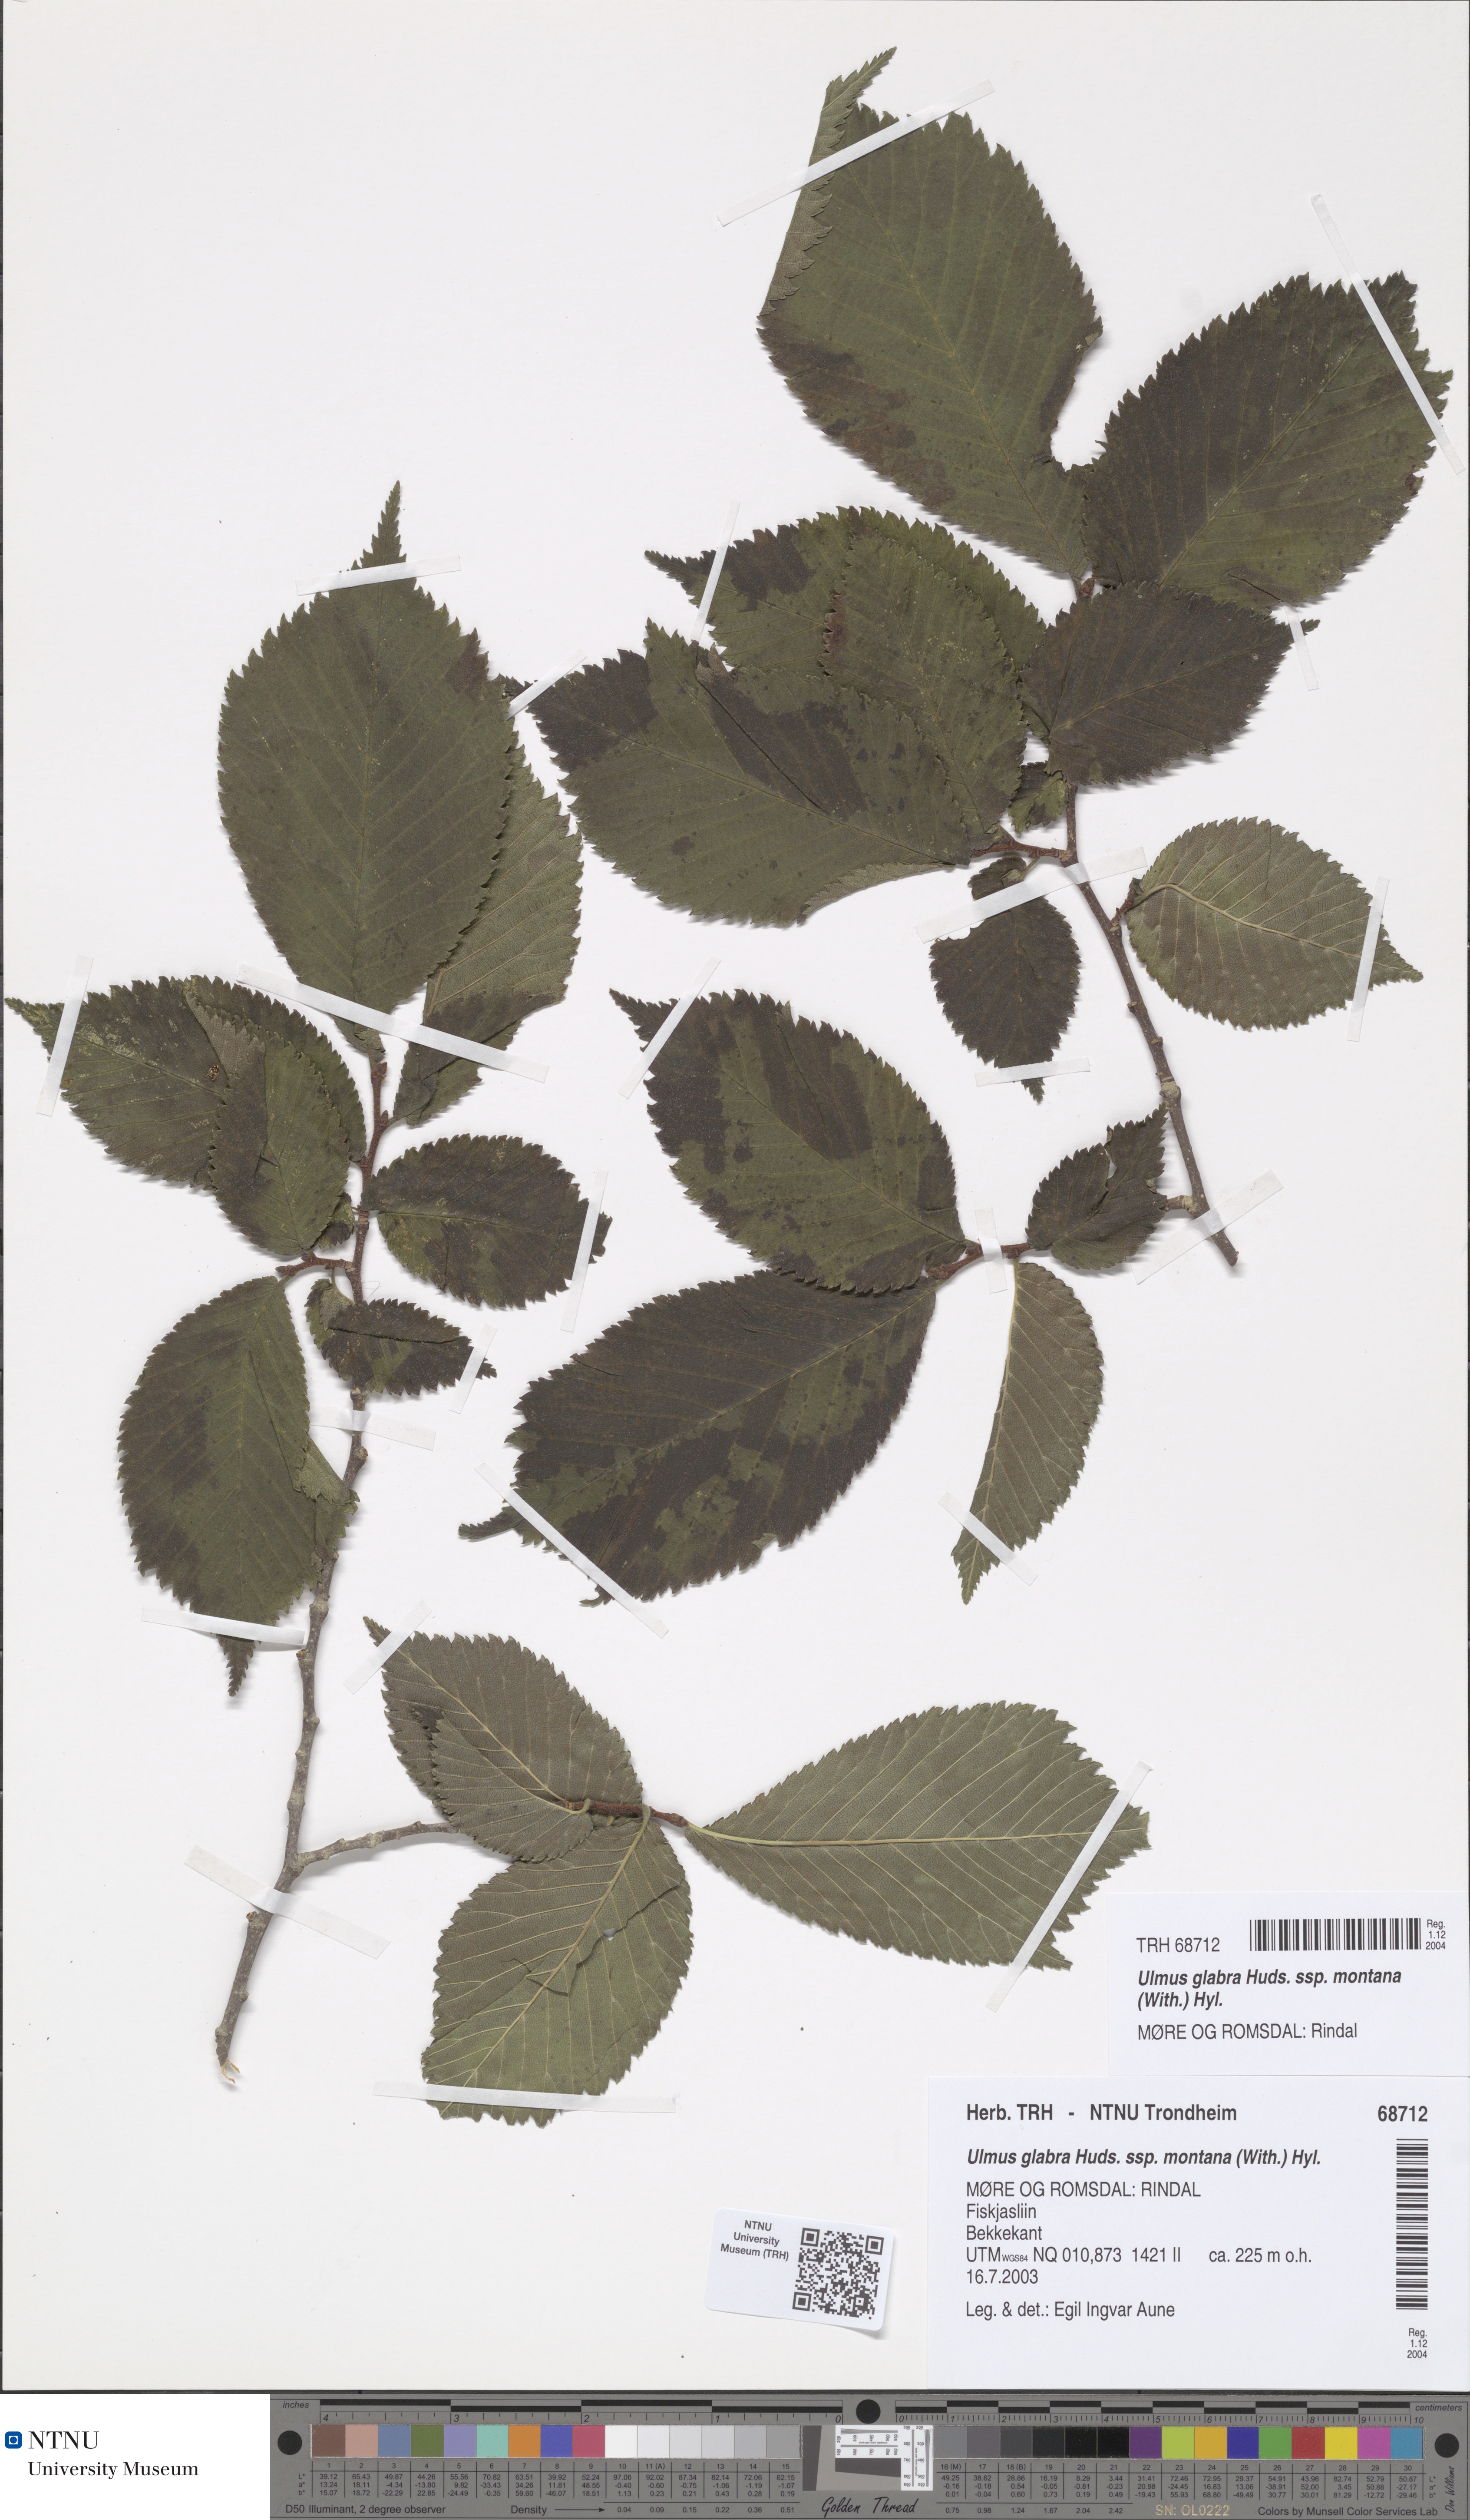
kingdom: Plantae
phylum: Tracheophyta
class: Magnoliopsida
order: Rosales
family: Ulmaceae
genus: Ulmus
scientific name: Ulmus glabra
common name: Wych elm
